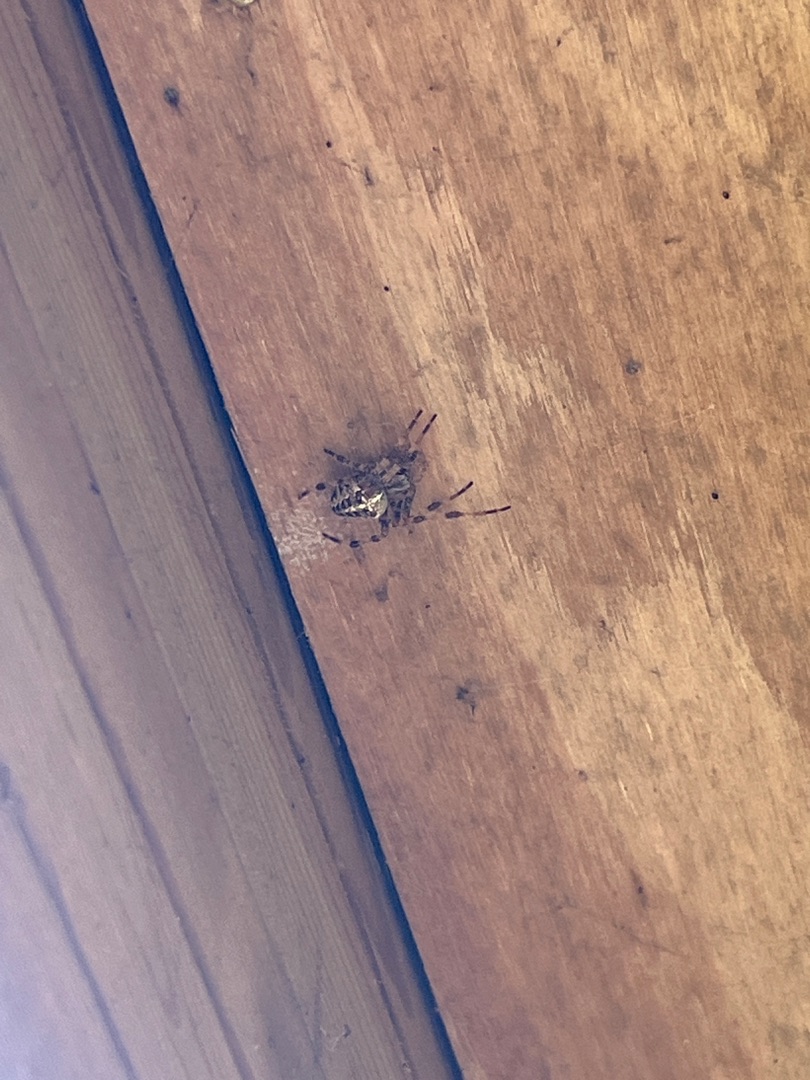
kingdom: Animalia
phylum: Arthropoda
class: Arachnida
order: Araneae
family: Araneidae
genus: Araneus
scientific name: Araneus diadematus
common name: Korsedderkop
